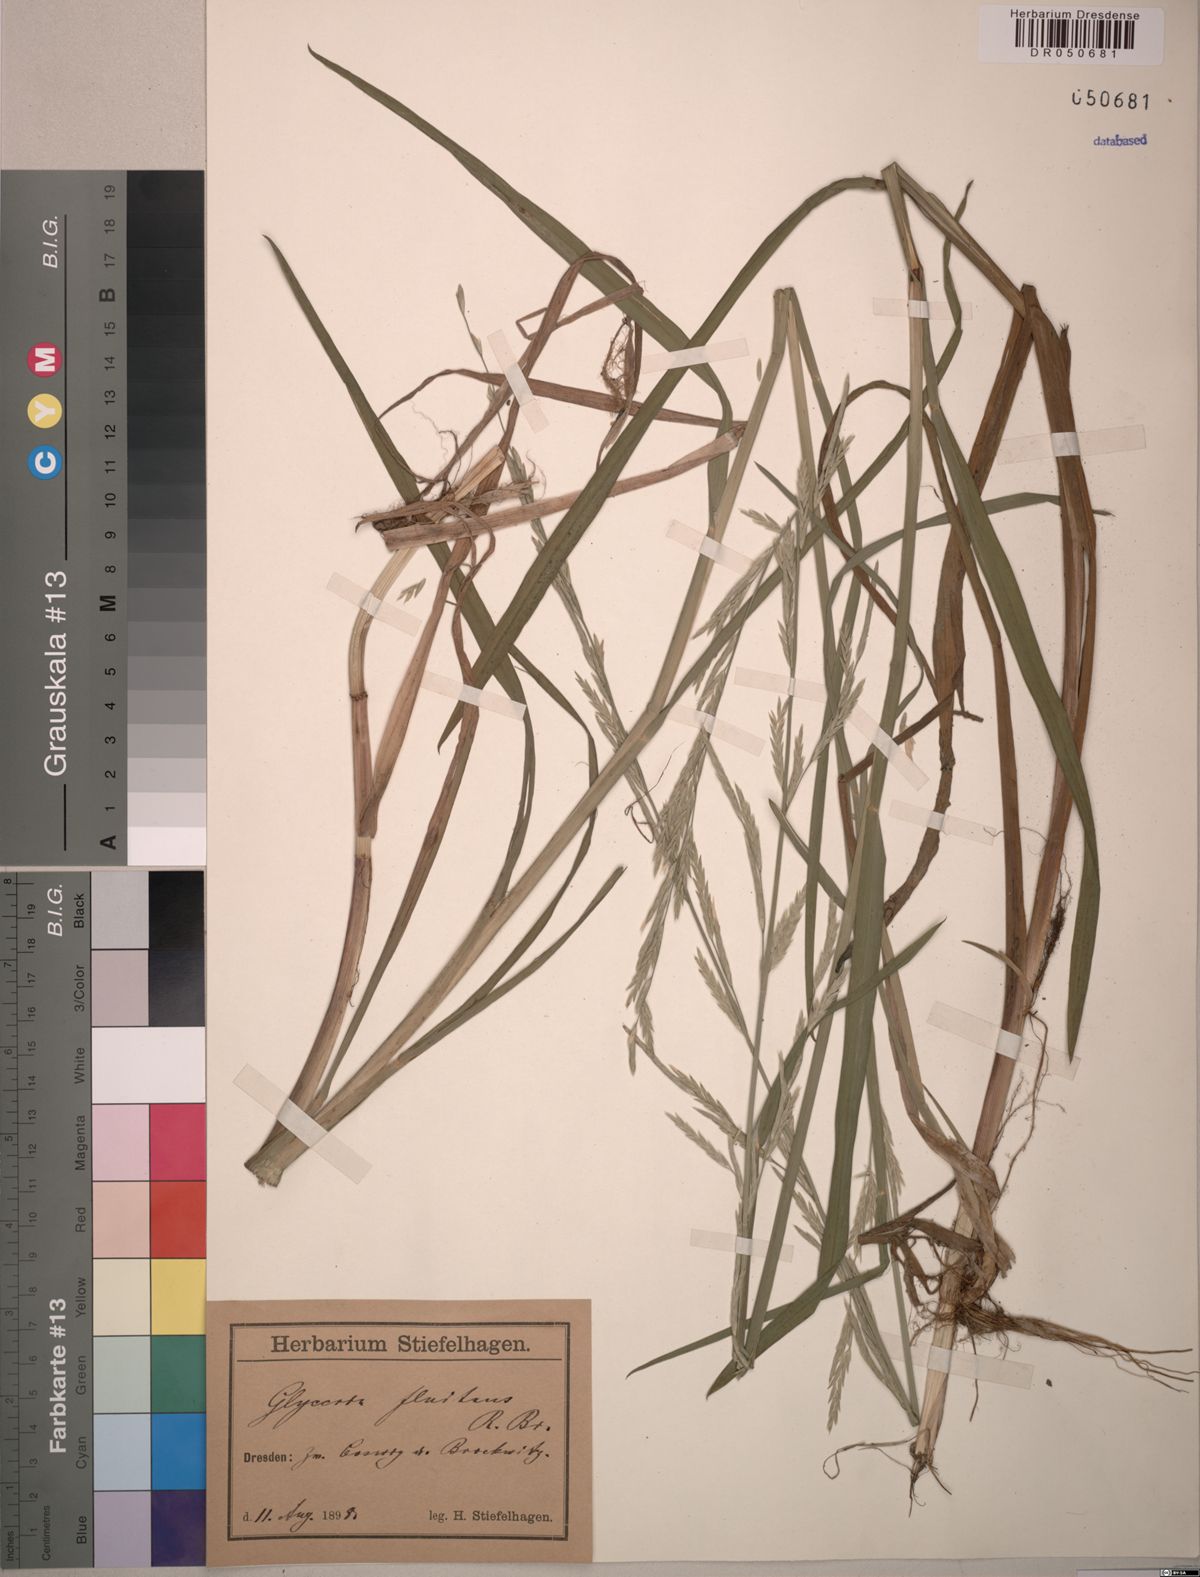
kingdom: Plantae
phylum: Tracheophyta
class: Liliopsida
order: Poales
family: Poaceae
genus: Glyceria
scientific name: Glyceria fluitans
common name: Floating sweet-grass
